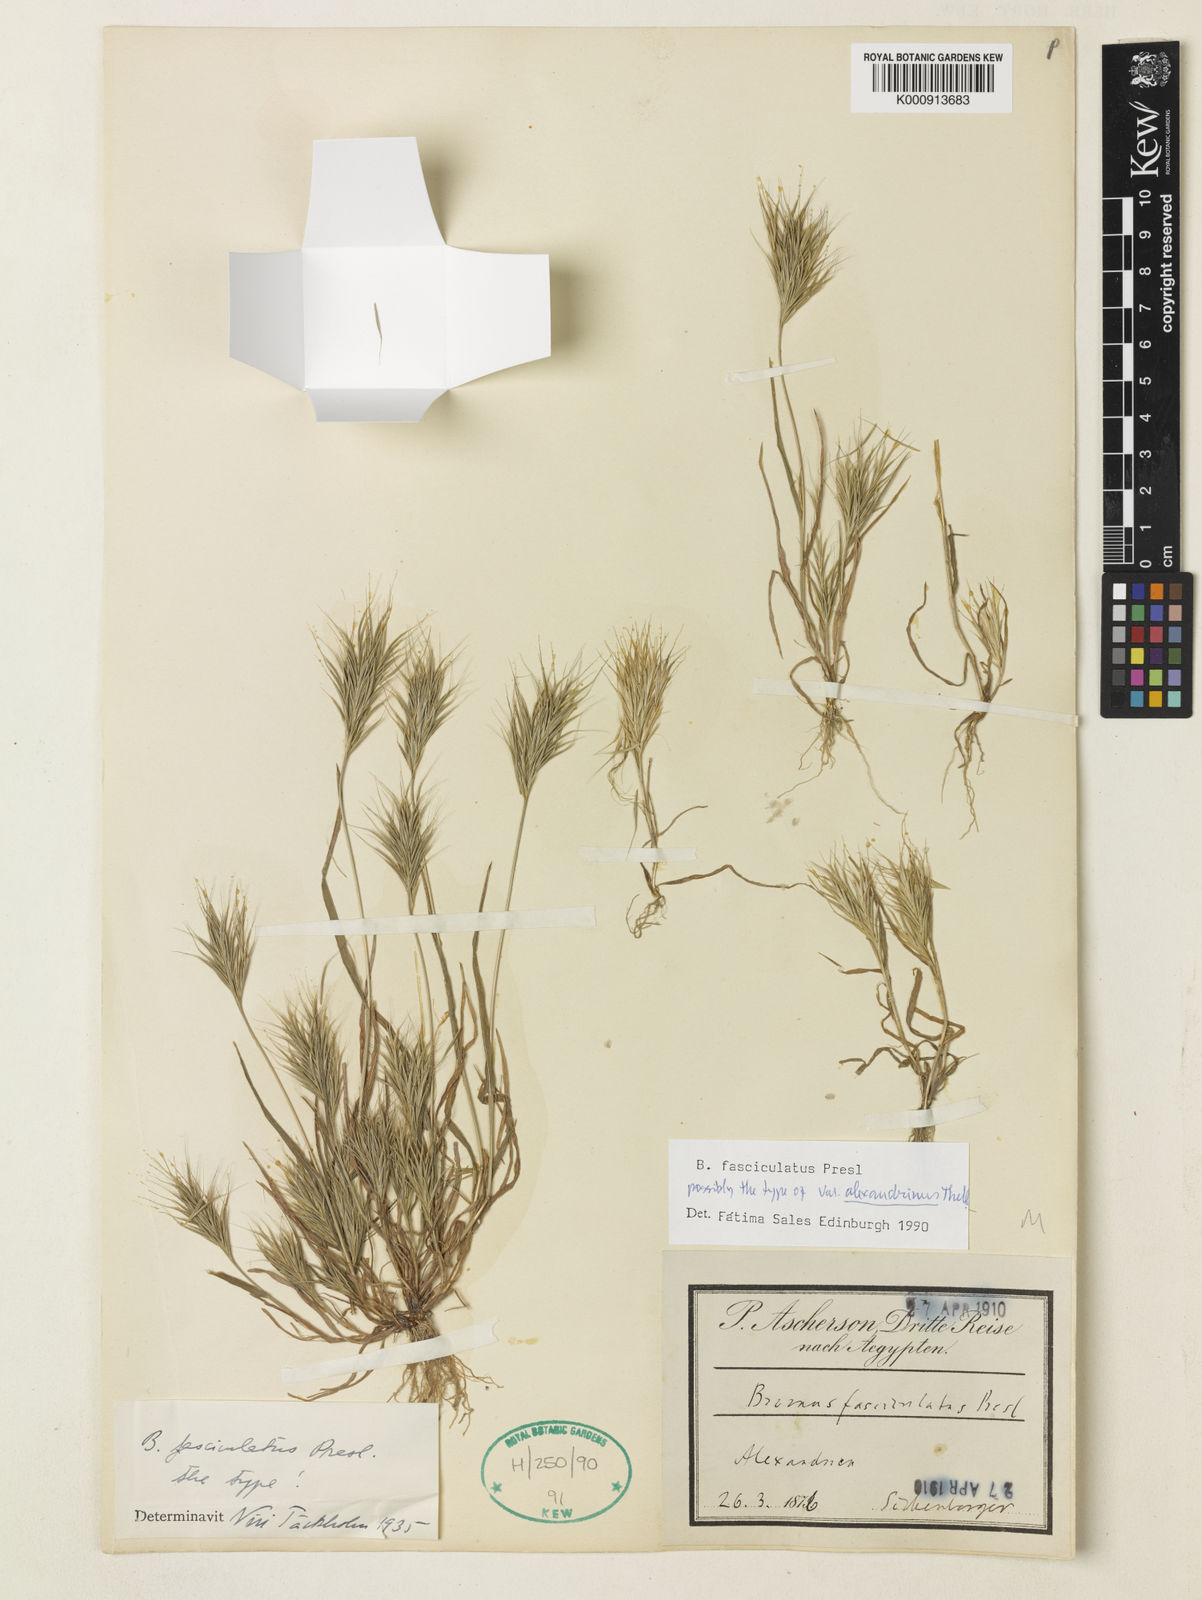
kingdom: Plantae
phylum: Tracheophyta
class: Liliopsida
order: Poales
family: Poaceae
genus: Bromus
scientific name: Bromus fasciculatus
